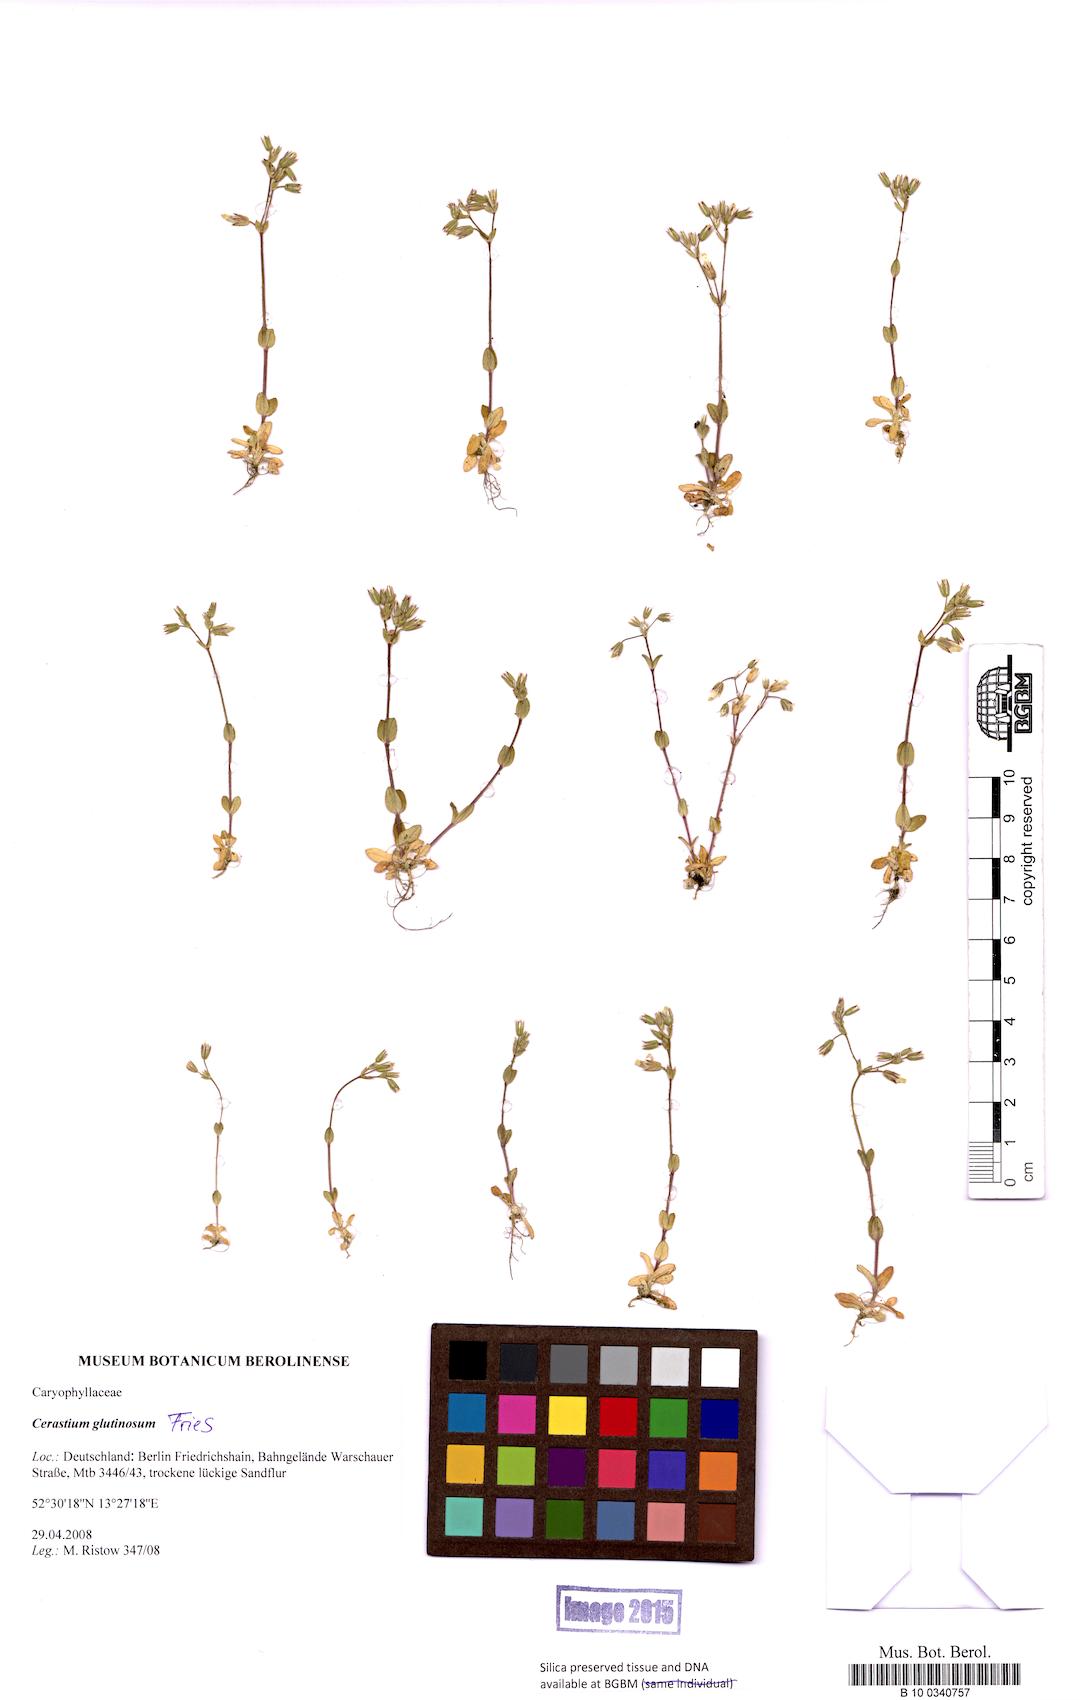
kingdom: Plantae
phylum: Tracheophyta
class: Magnoliopsida
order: Caryophyllales
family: Caryophyllaceae
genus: Cerastium
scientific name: Cerastium glutinosum
